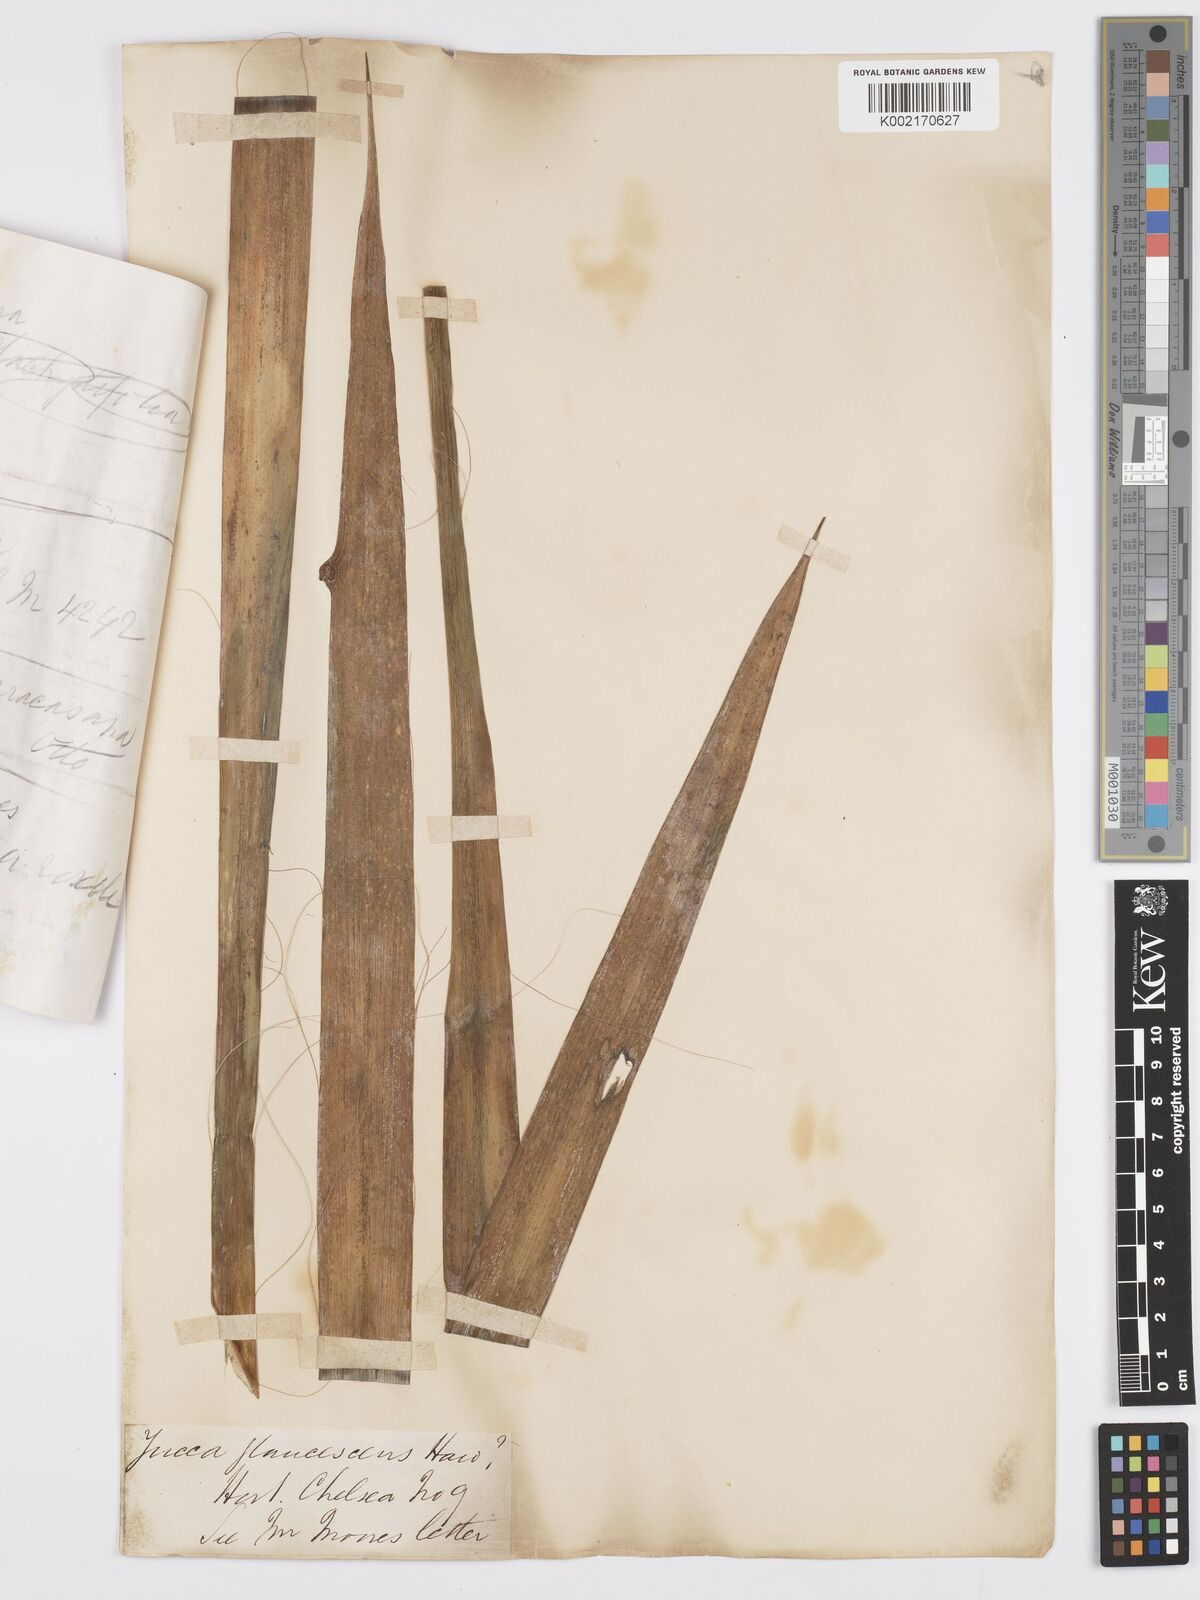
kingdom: Plantae
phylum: Tracheophyta
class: Liliopsida
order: Asparagales
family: Asparagaceae
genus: Yucca
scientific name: Yucca flaccida
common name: Adam's-needle
